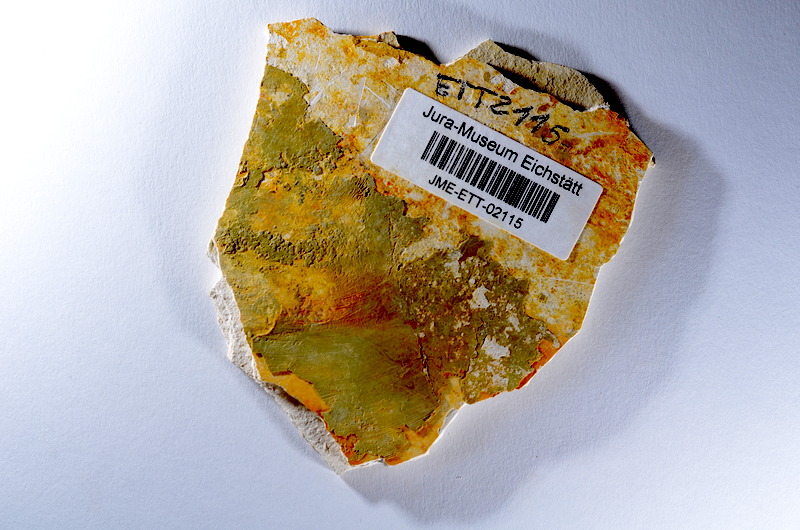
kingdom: Animalia
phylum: Chordata
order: Salmoniformes
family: Orthogonikleithridae
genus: Orthogonikleithrus
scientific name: Orthogonikleithrus hoelli
